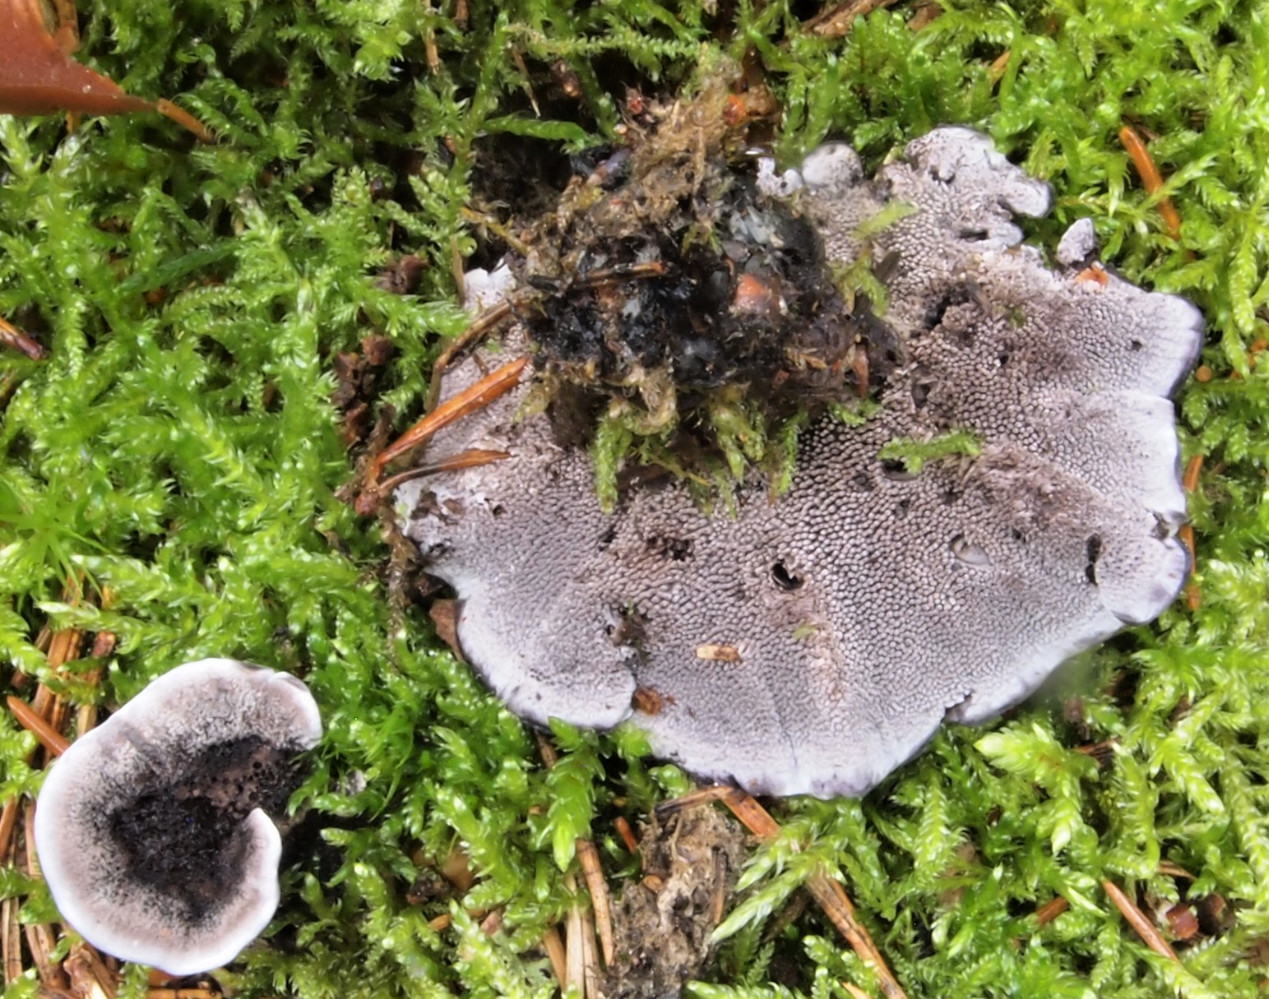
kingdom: Fungi
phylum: Basidiomycota
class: Agaricomycetes
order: Thelephorales
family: Thelephoraceae
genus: Phellodon
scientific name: Phellodon tomentosus
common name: vellugtende duftpigsvamp
